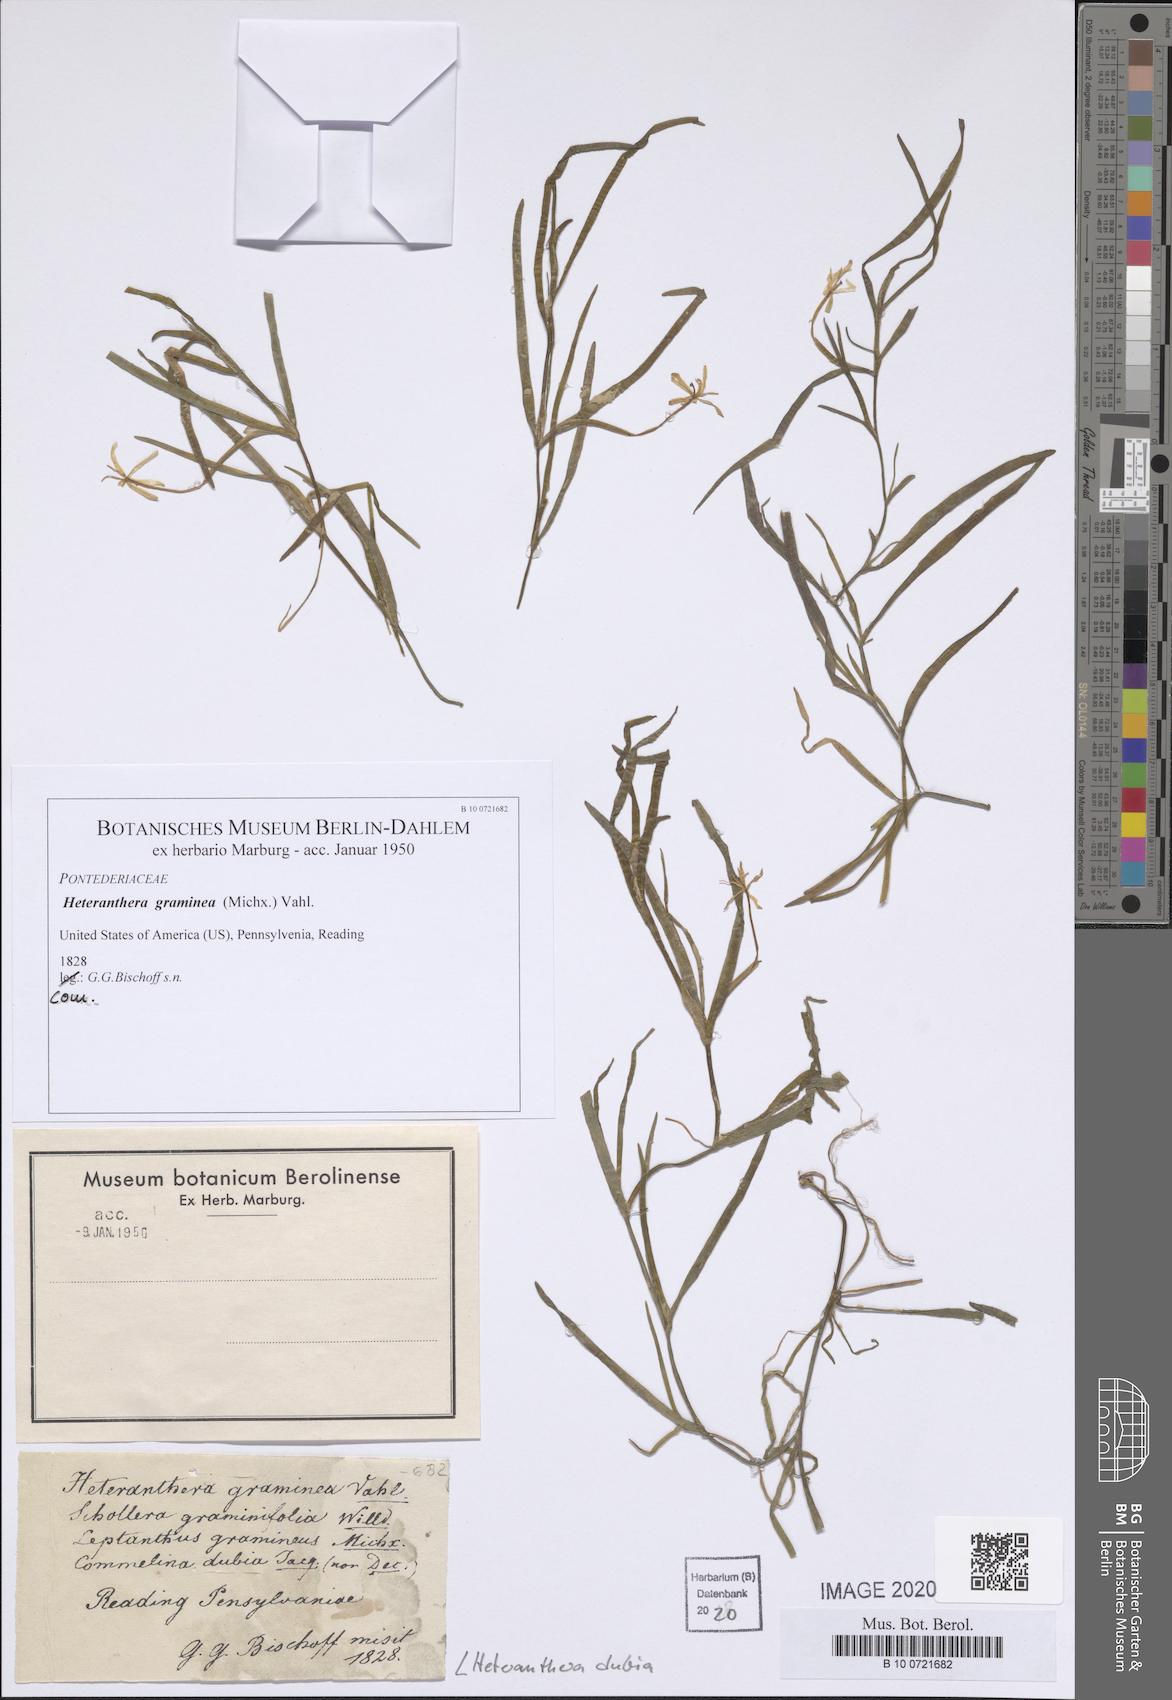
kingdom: Plantae
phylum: Tracheophyta
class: Liliopsida
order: Commelinales
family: Pontederiaceae
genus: Heteranthera
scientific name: Heteranthera dubia
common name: Grass-leaved mud plantain
